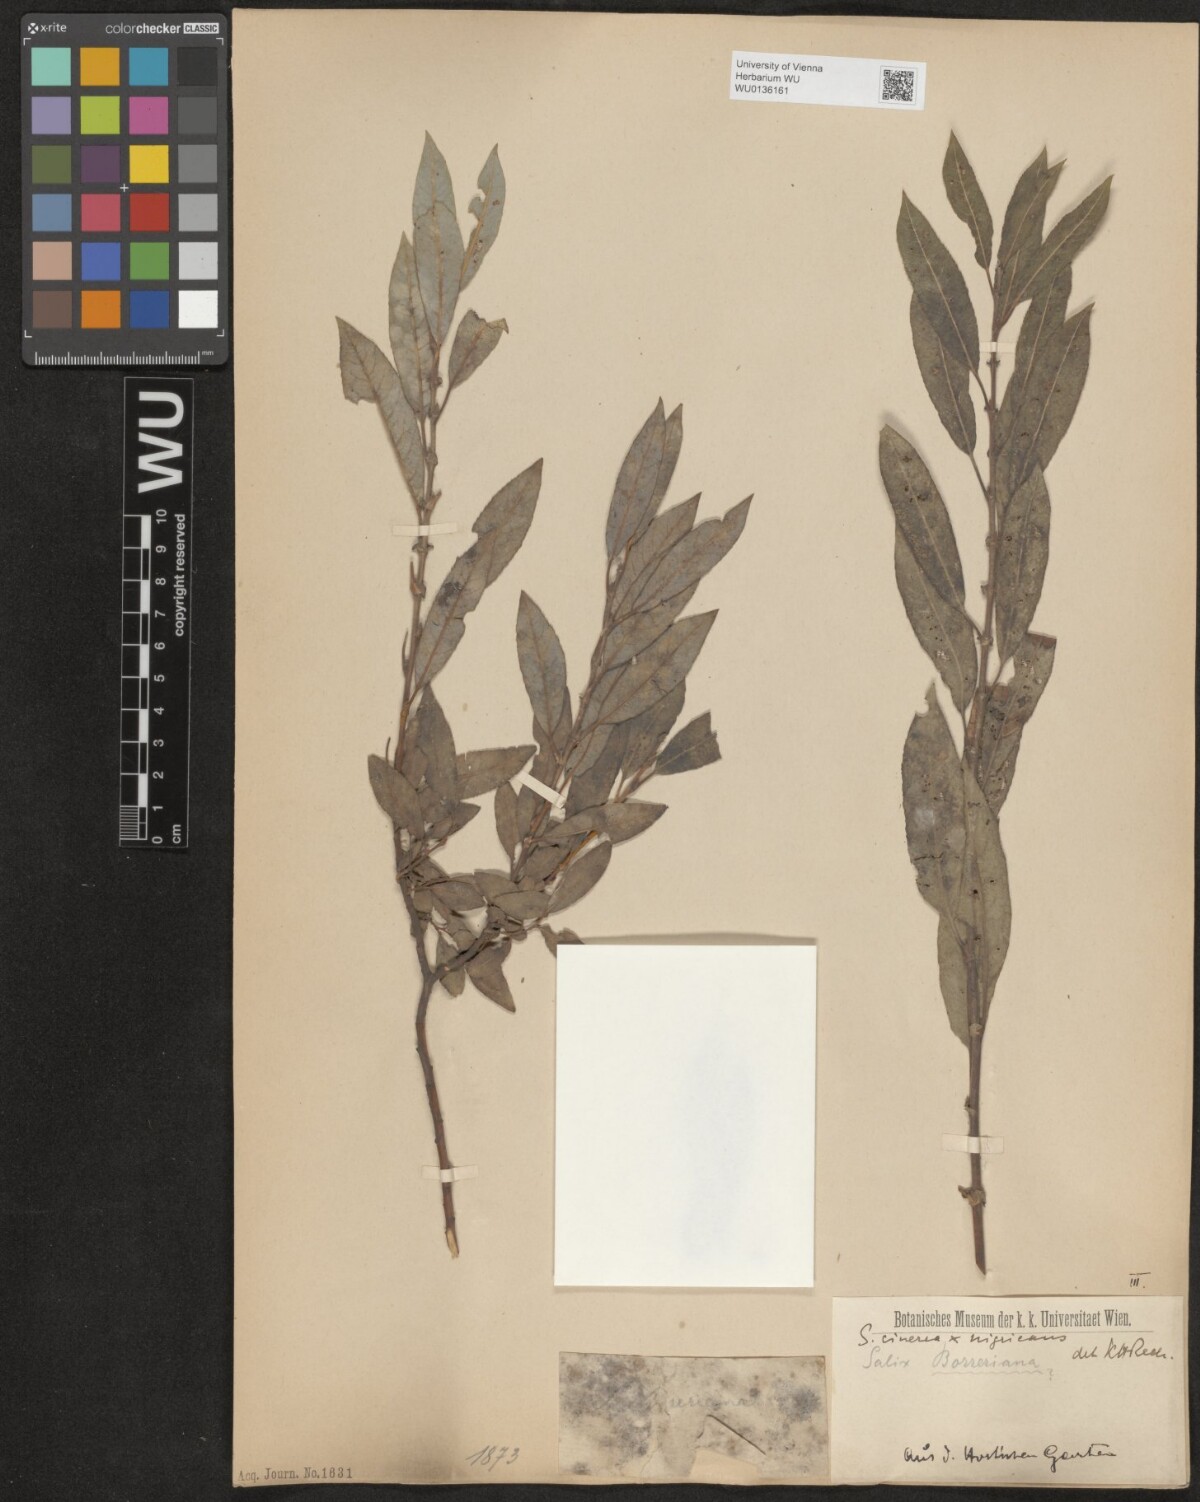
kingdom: Plantae
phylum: Tracheophyta
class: Magnoliopsida
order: Malpighiales
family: Salicaceae
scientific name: Salicaceae
